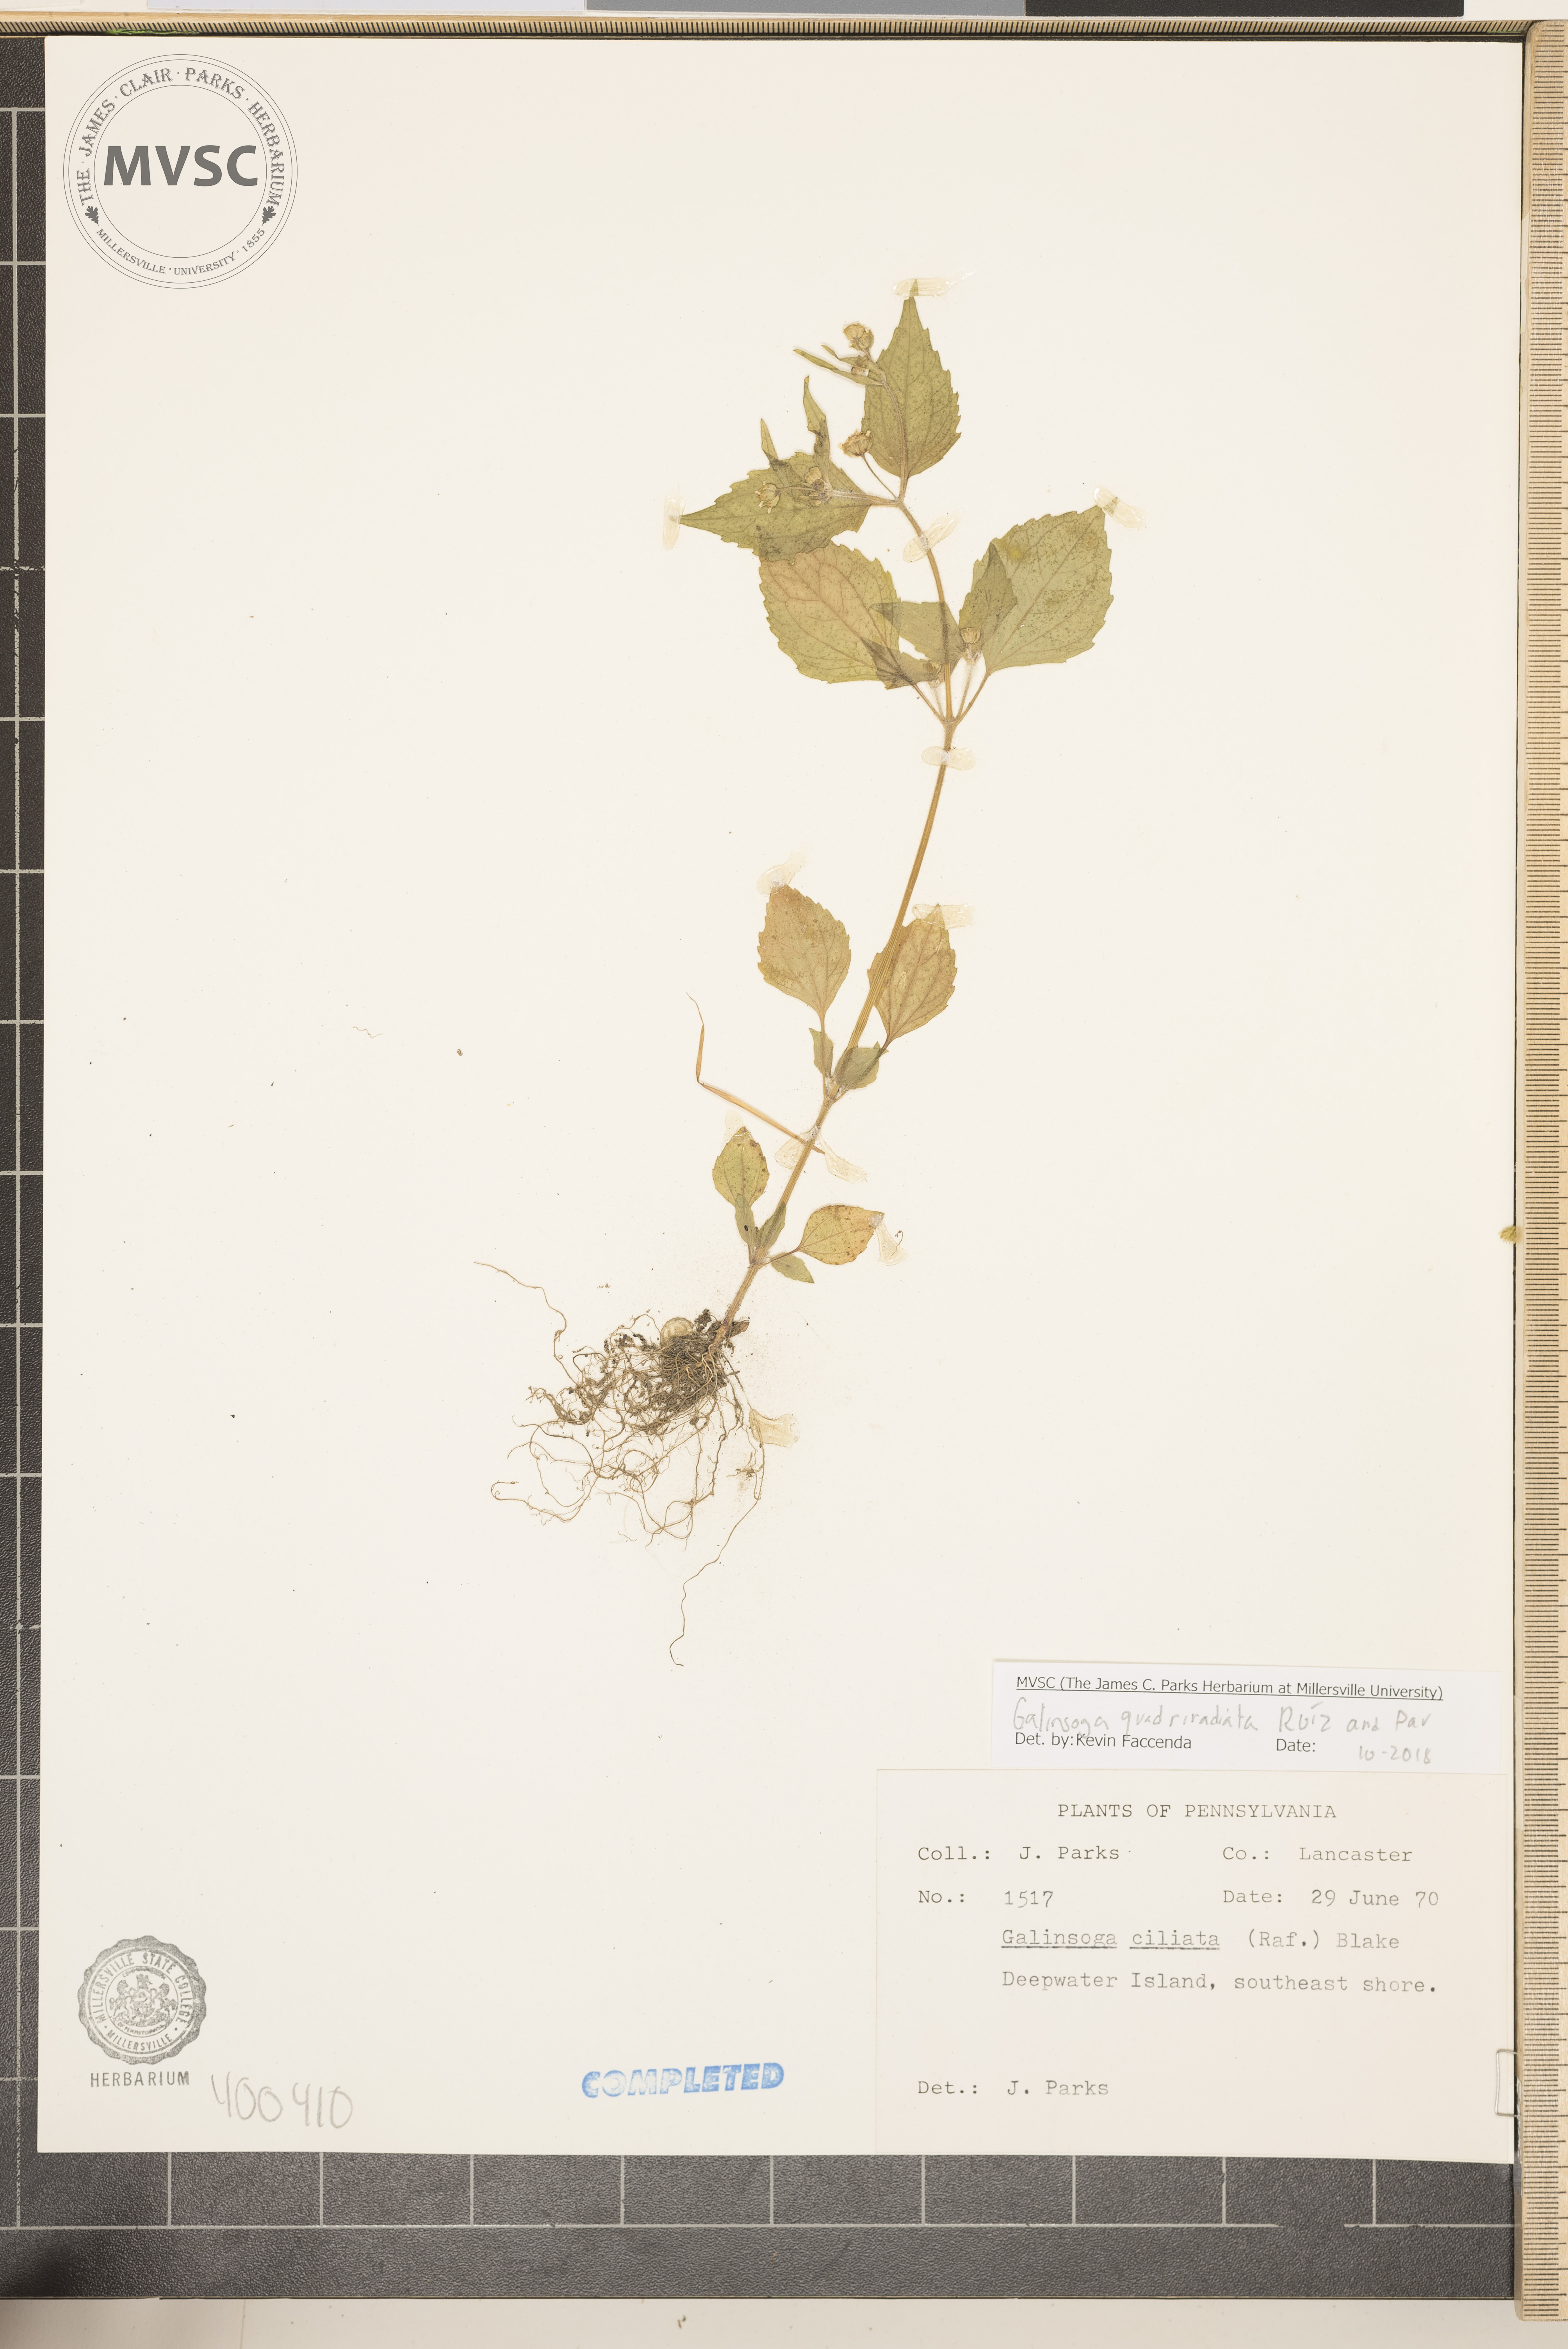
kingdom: Plantae
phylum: Tracheophyta
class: Magnoliopsida
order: Asterales
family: Asteraceae
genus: Galinsoga
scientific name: Galinsoga quadriradiata
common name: Shaggy soldier
